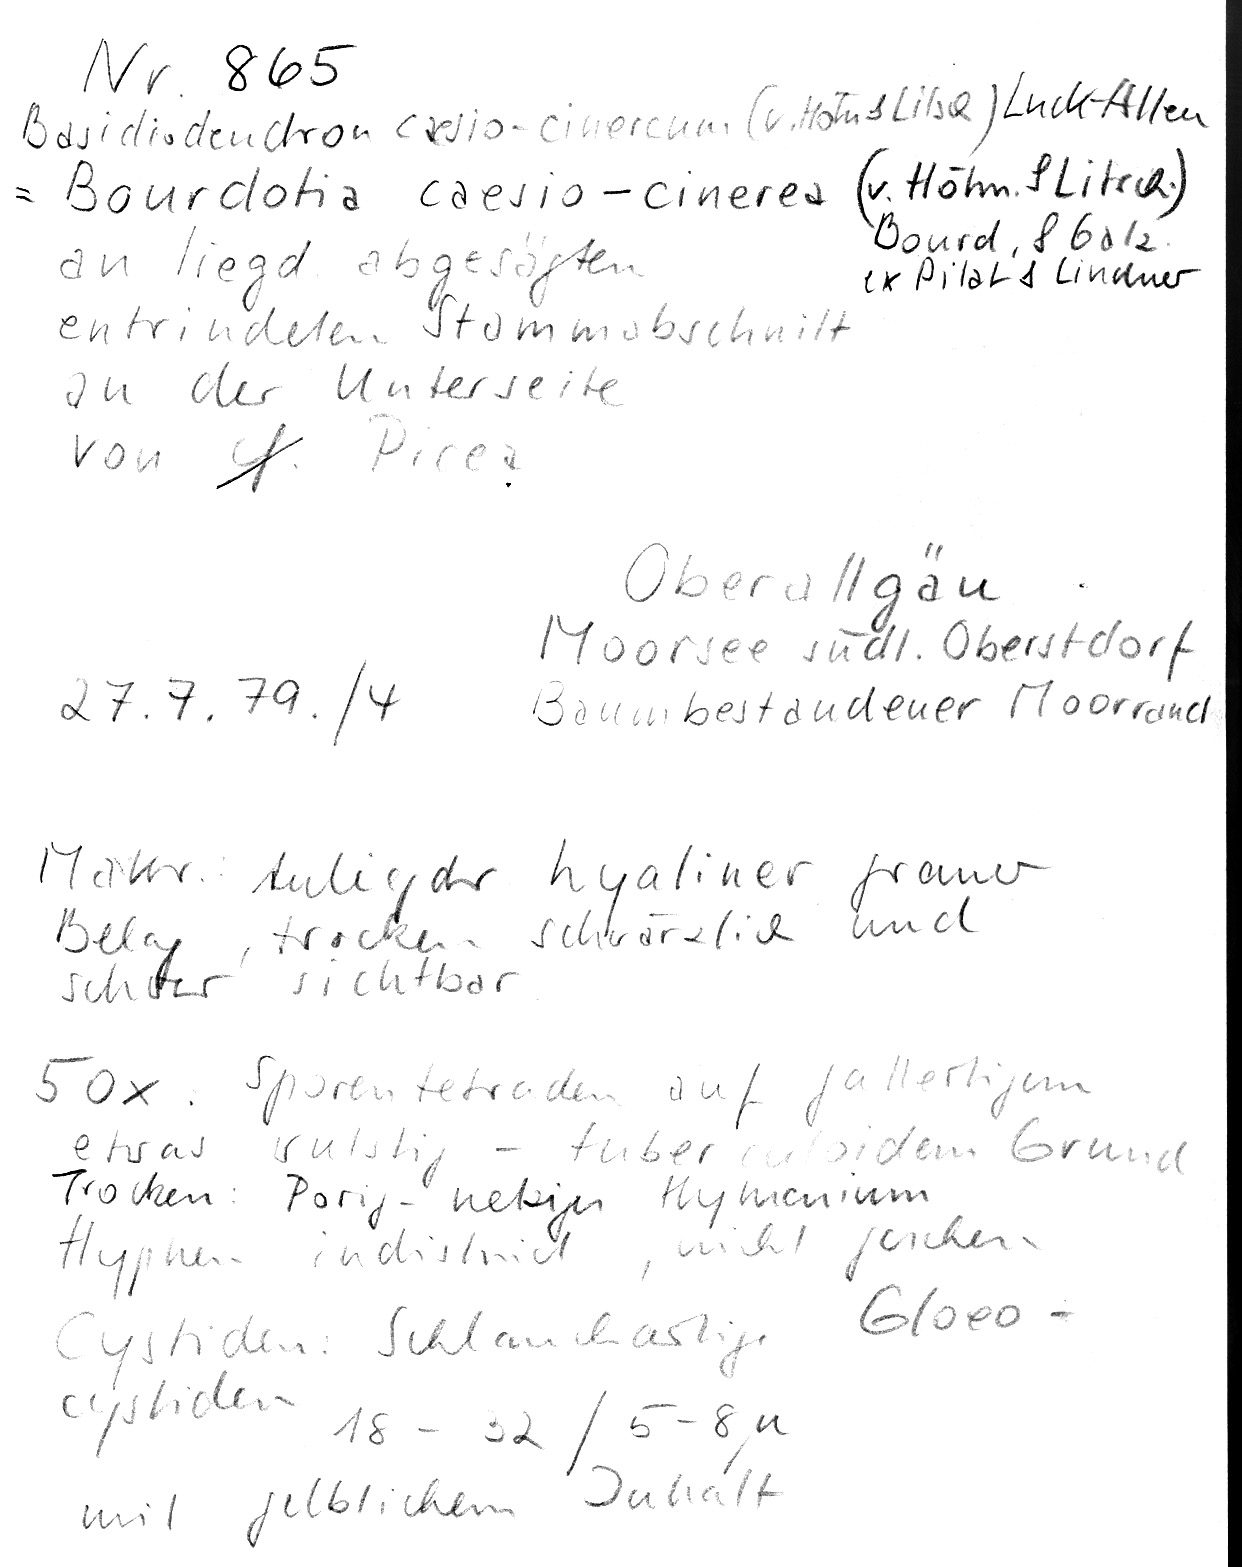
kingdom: Plantae
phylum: Tracheophyta
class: Pinopsida
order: Pinales
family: Pinaceae
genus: Picea
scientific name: Picea
